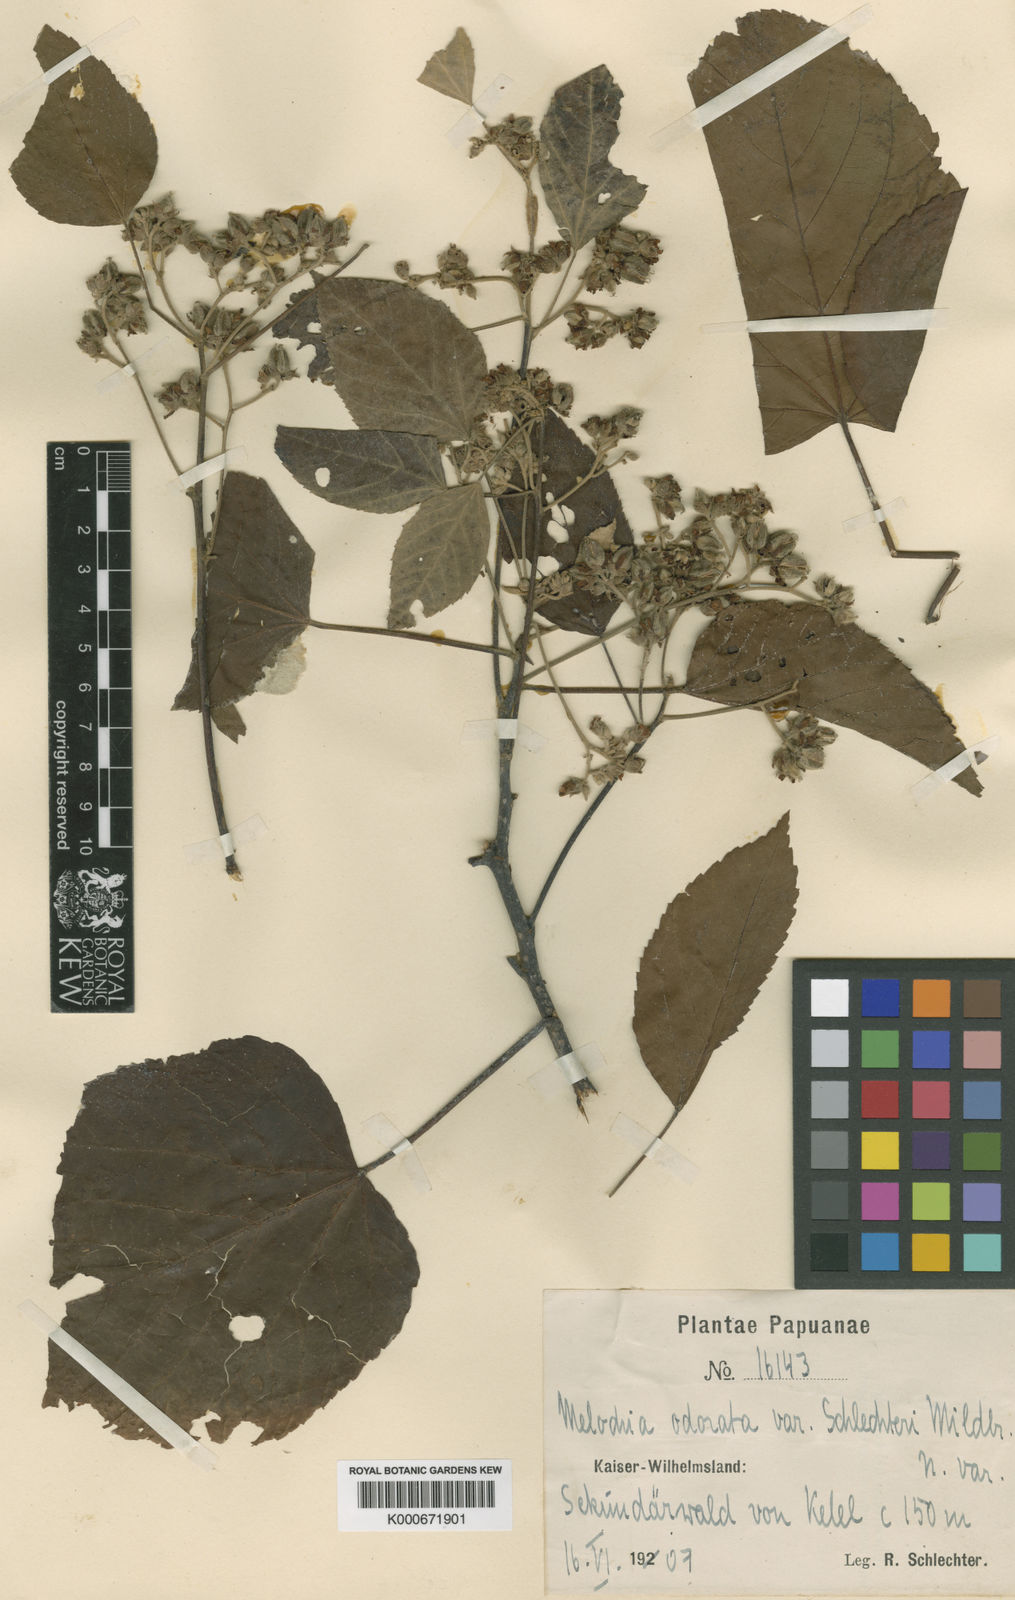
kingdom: Plantae
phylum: Tracheophyta
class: Magnoliopsida
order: Malvales
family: Malvaceae
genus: Melochia
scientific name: Melochia odorata
